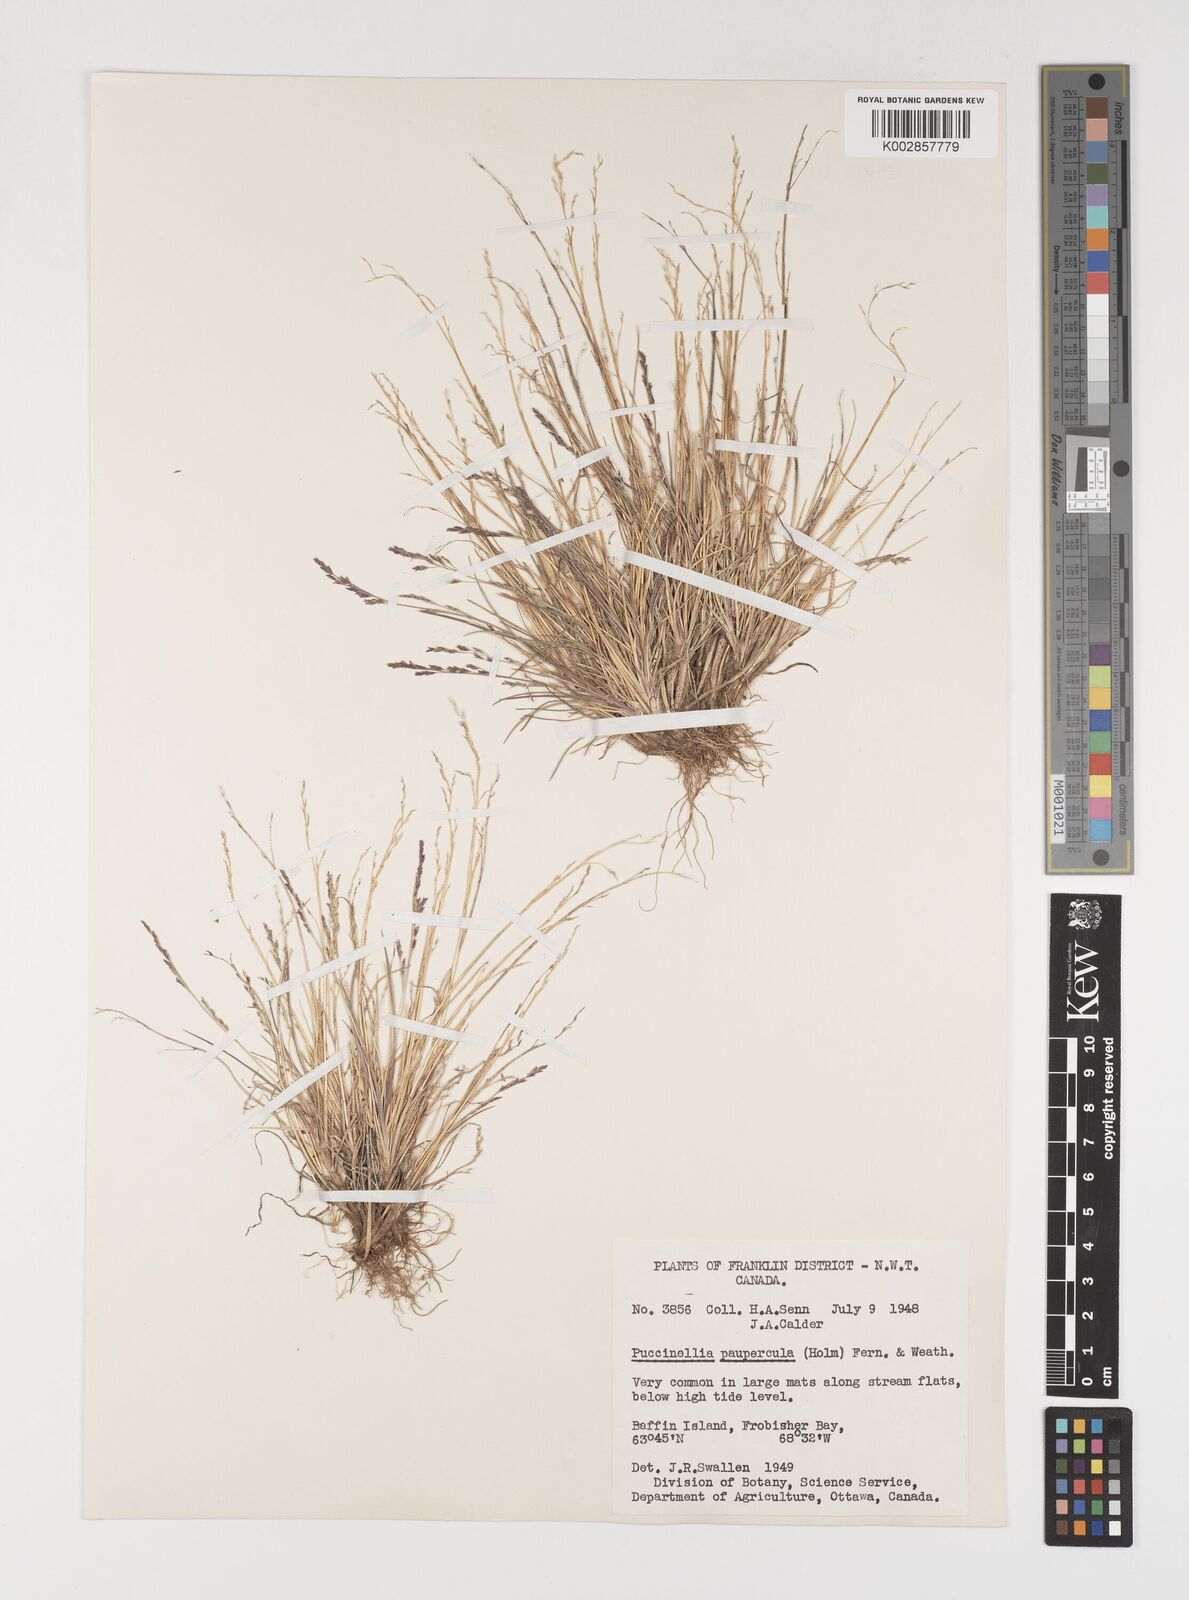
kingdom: Plantae
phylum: Tracheophyta
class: Liliopsida
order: Poales
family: Poaceae
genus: Puccinellia
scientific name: Puccinellia pumila
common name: Dwarf alkaligrass
